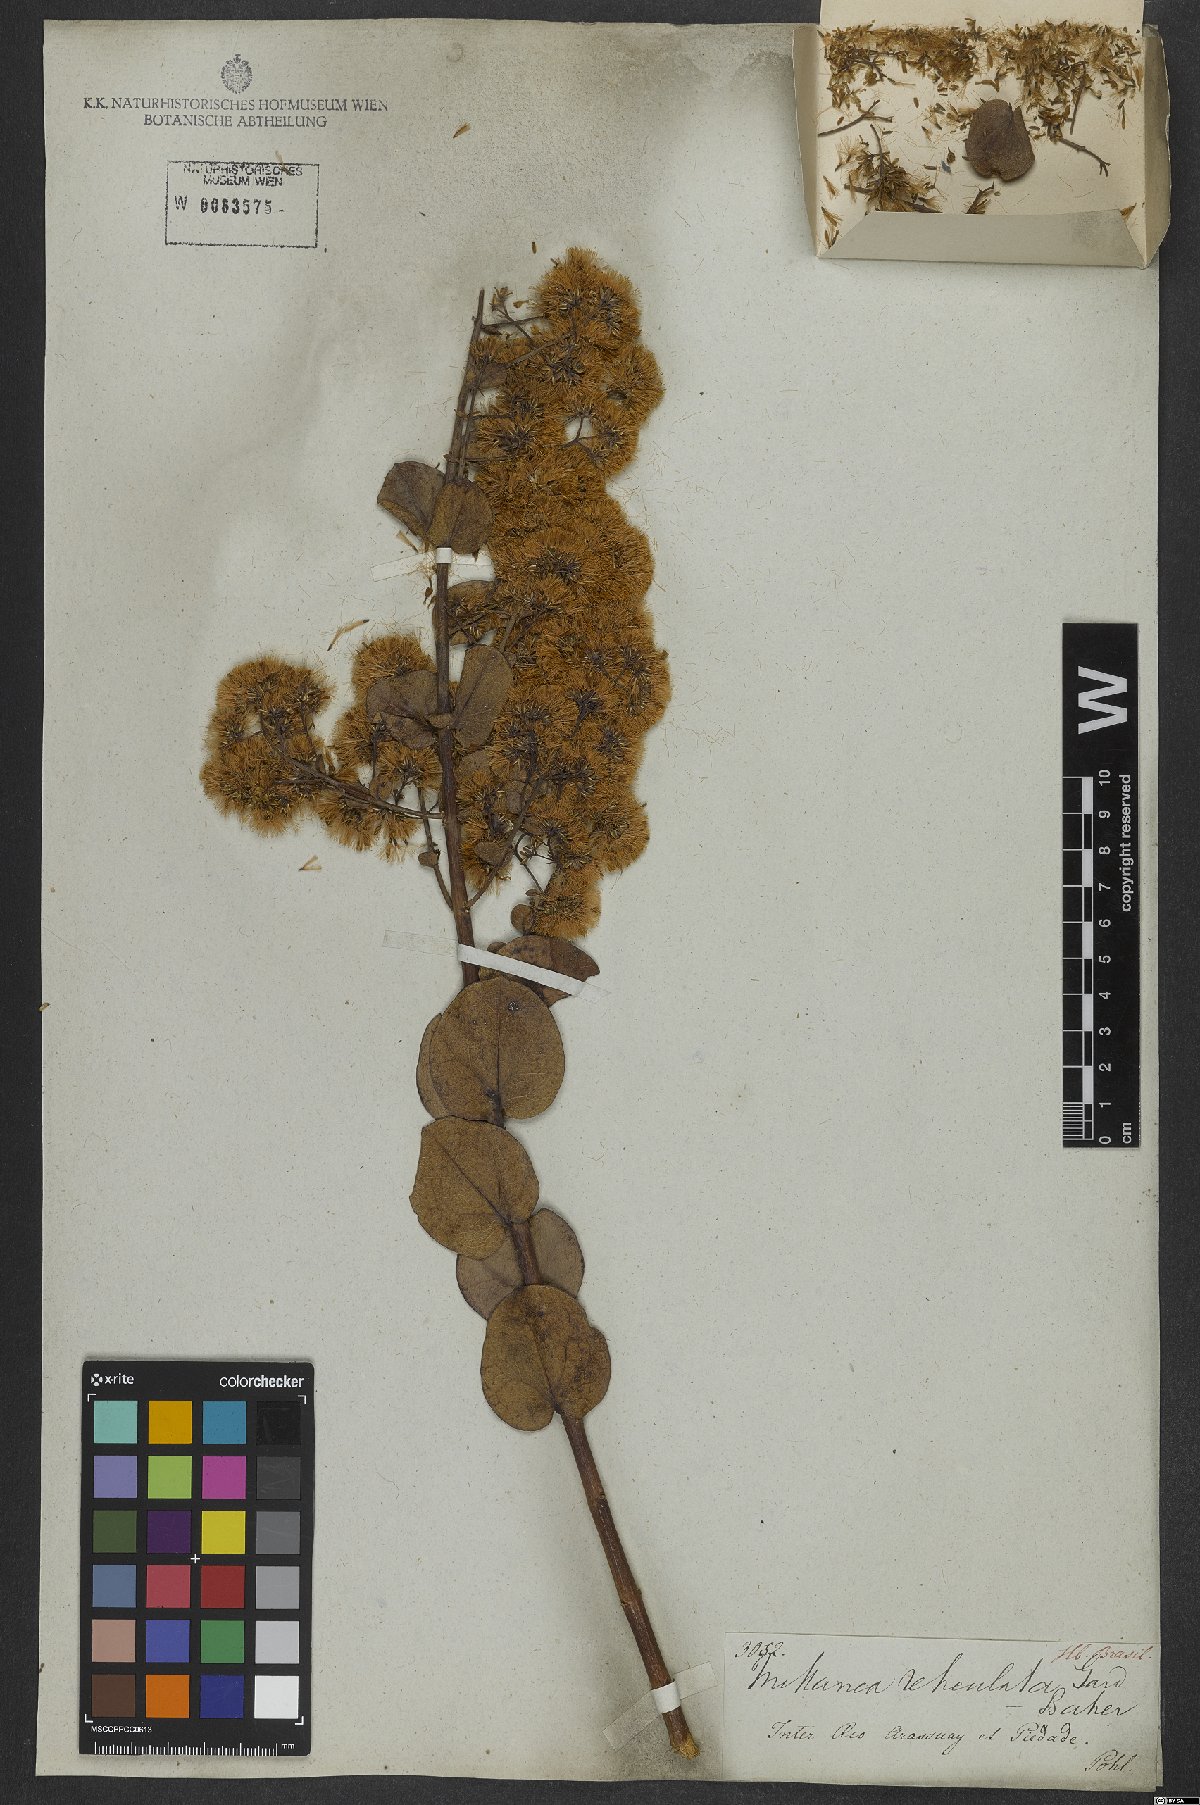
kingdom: Plantae
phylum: Tracheophyta
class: Magnoliopsida
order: Asterales
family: Asteraceae
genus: Mikania
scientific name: Mikania reticulata
